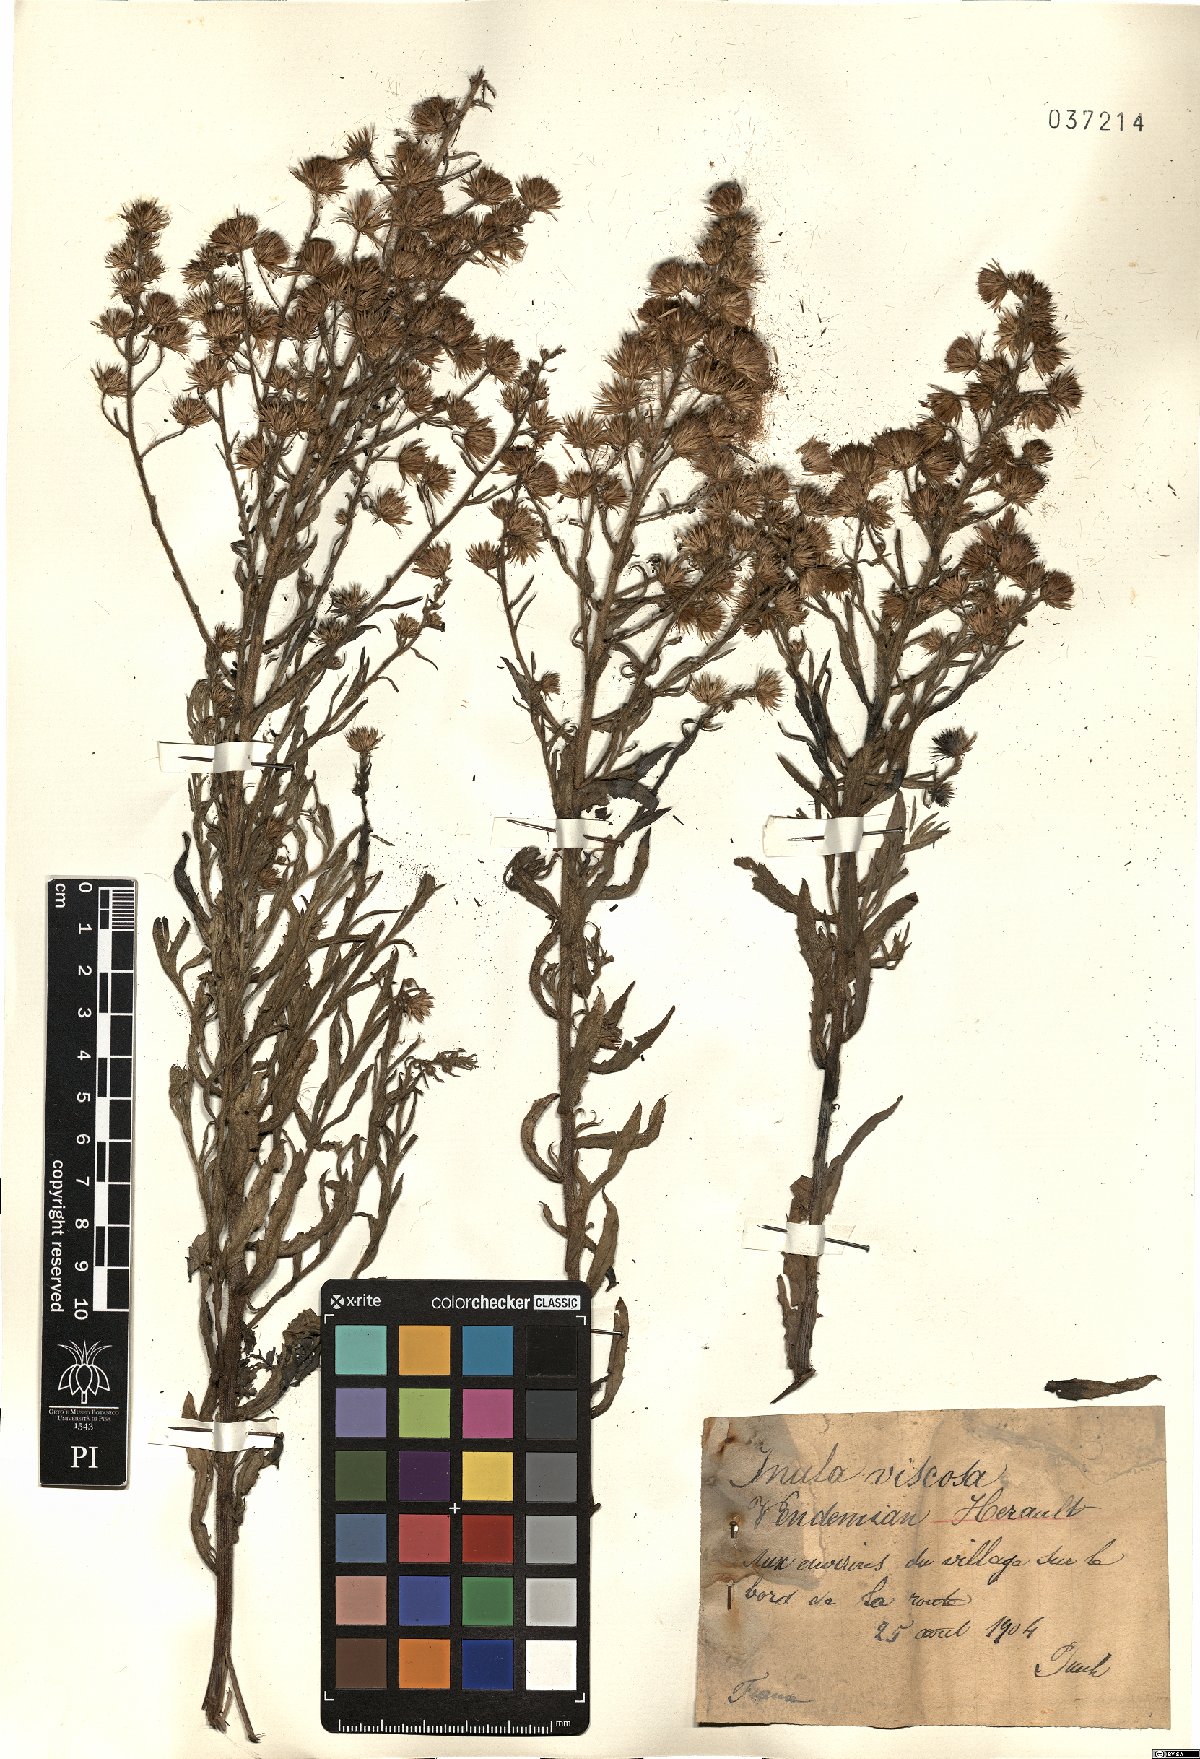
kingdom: Plantae
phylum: Tracheophyta
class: Magnoliopsida
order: Asterales
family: Asteraceae
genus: Dittrichia
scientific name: Dittrichia viscosa
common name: Woody fleabane
